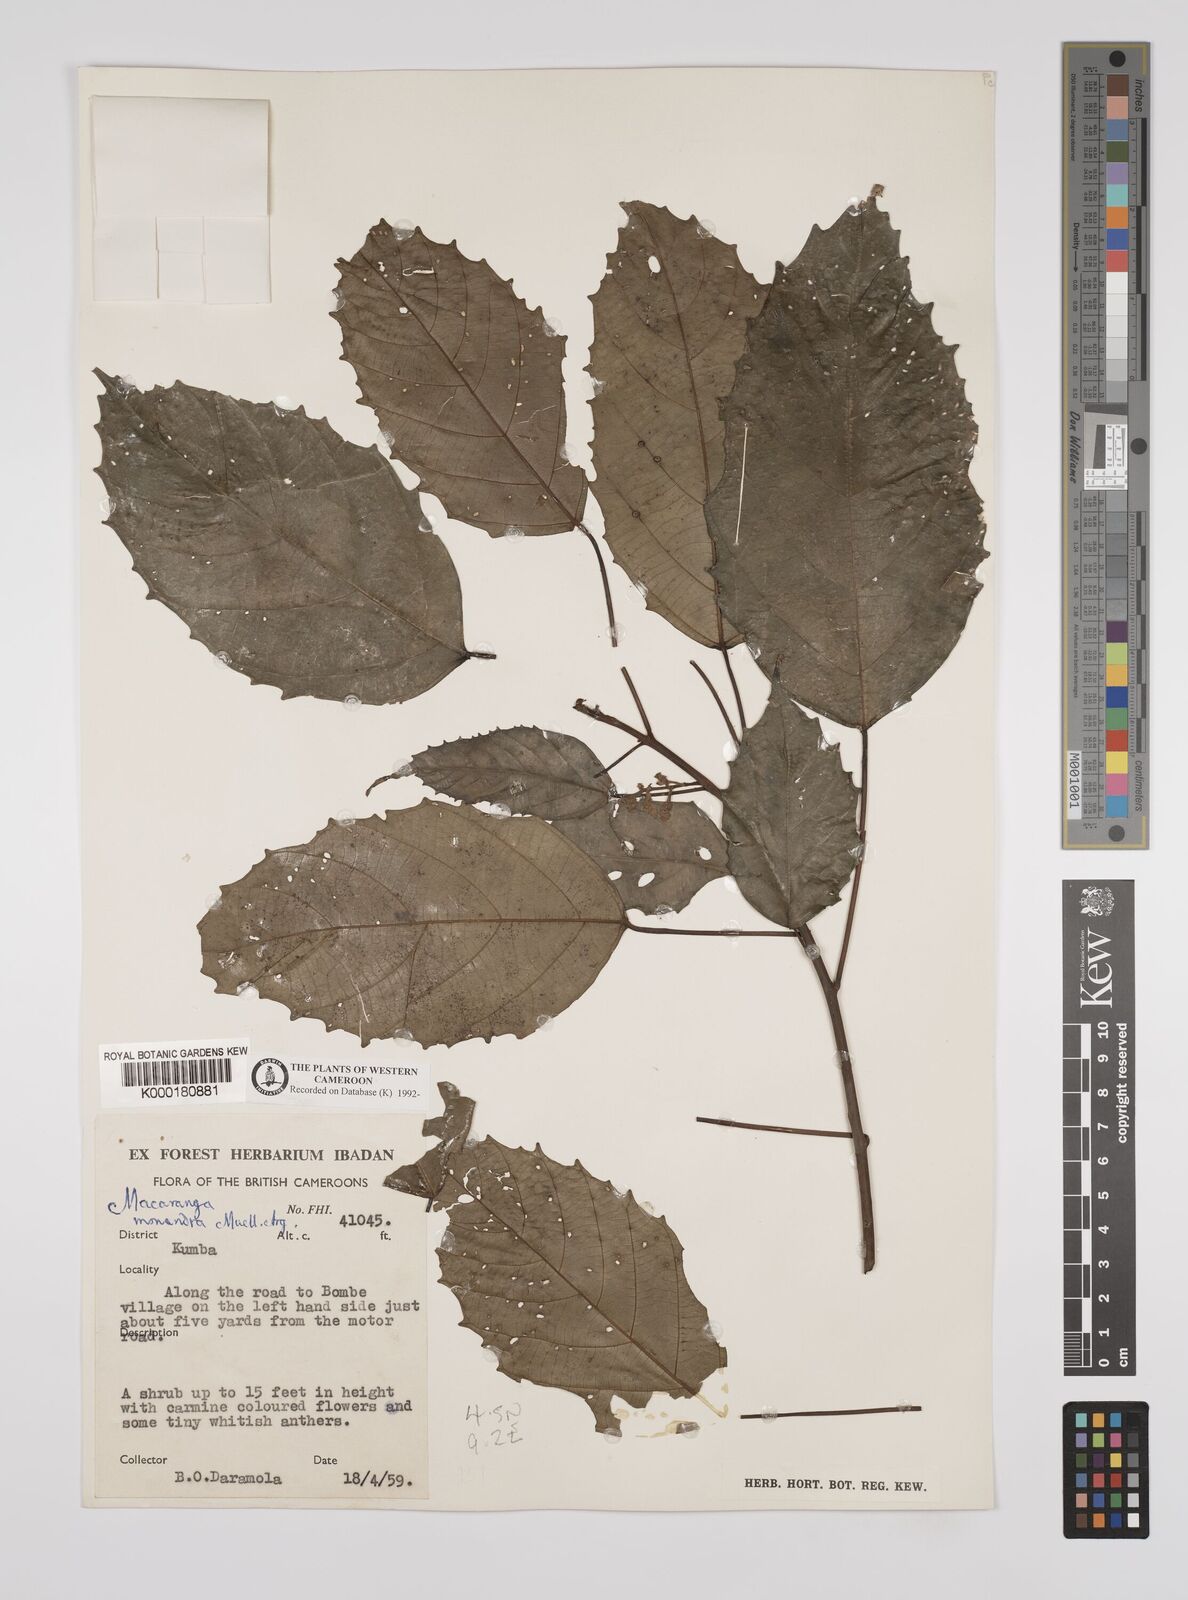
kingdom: Plantae
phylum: Tracheophyta
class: Magnoliopsida
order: Malpighiales
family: Euphorbiaceae
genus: Macaranga
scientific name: Macaranga
